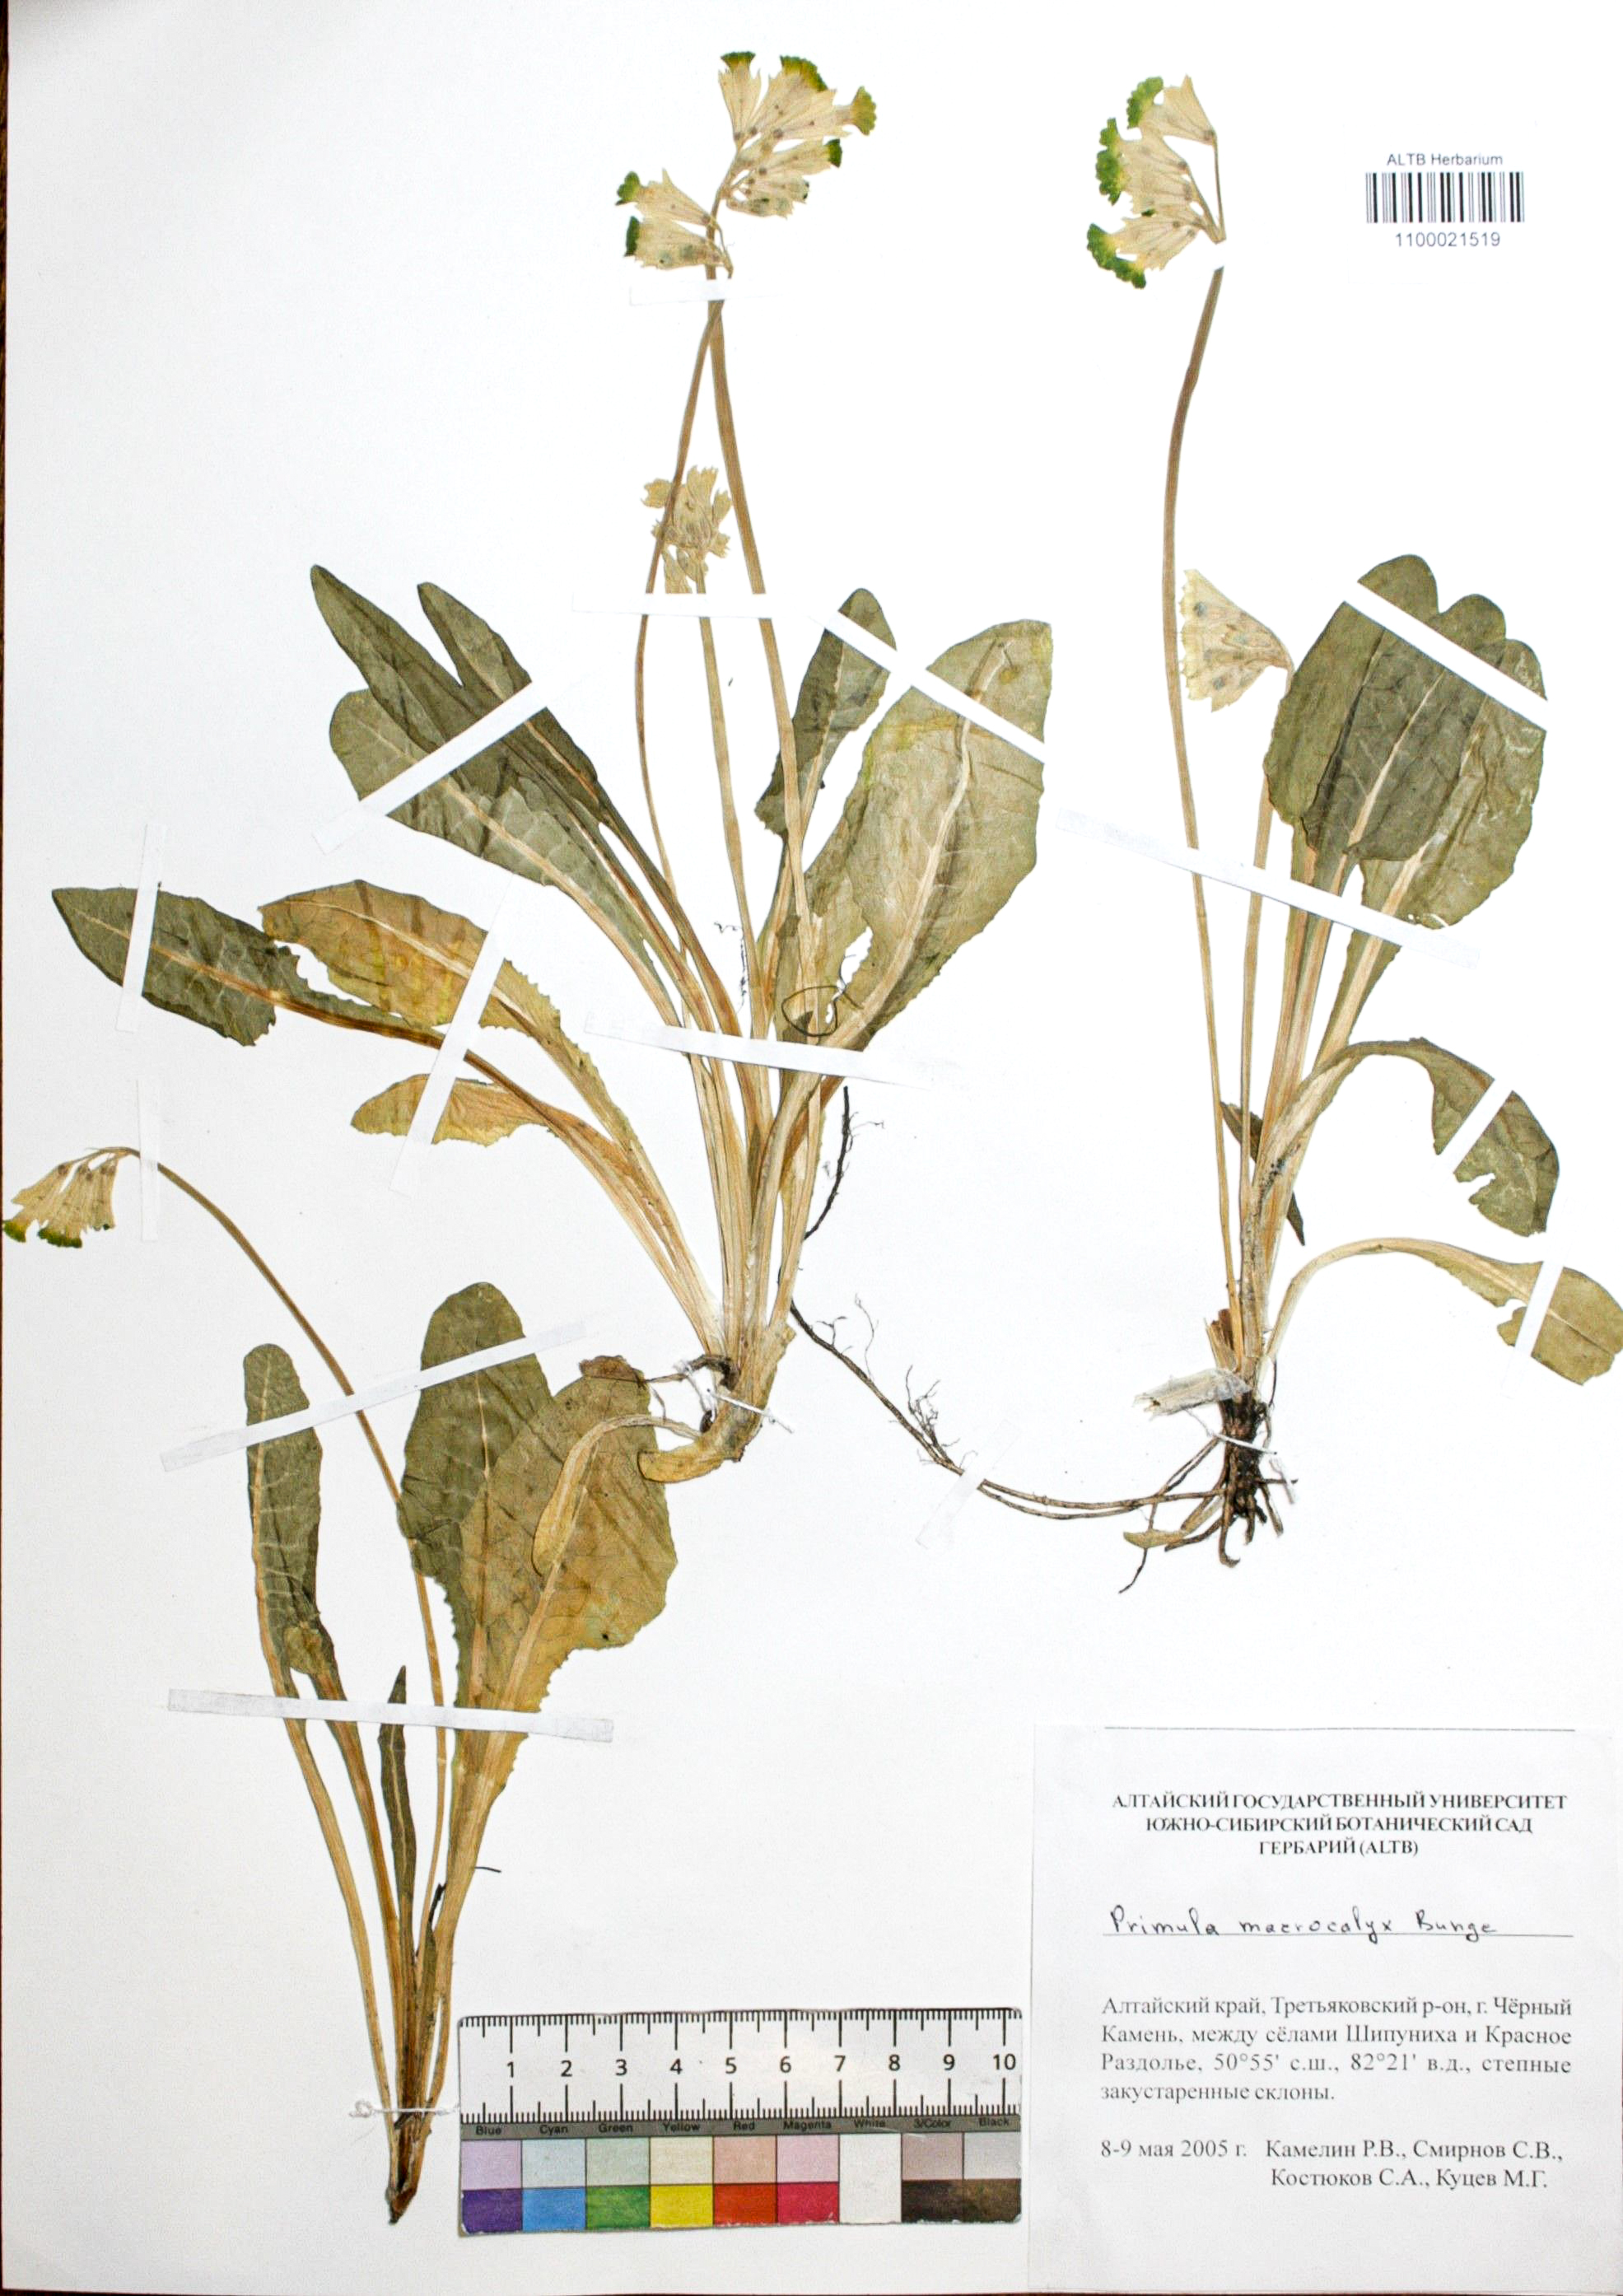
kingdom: Plantae
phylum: Tracheophyta
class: Magnoliopsida
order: Ericales
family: Primulaceae
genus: Primula
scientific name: Primula veris
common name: Cowslip
